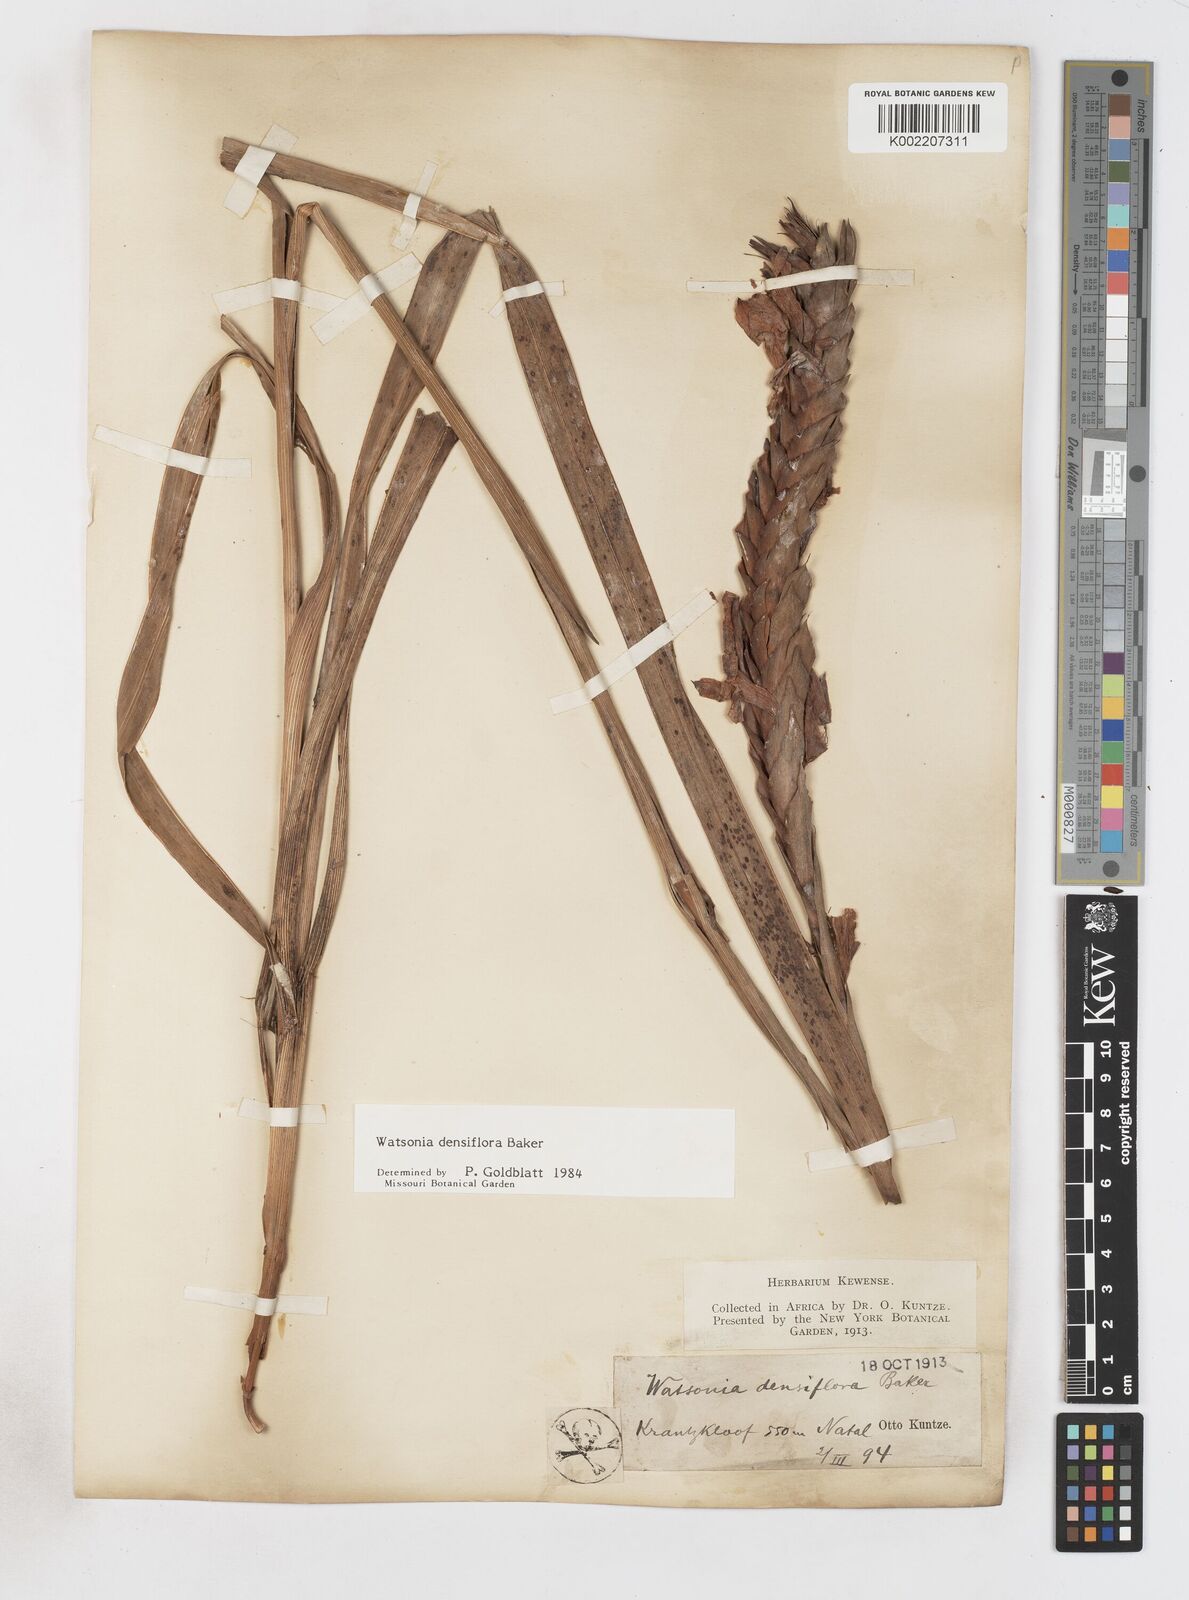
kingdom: Plantae
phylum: Tracheophyta
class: Liliopsida
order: Asparagales
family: Iridaceae
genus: Watsonia
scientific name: Watsonia densiflora
